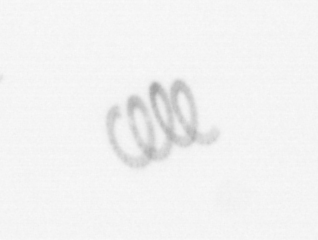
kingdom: Chromista
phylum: Ochrophyta
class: Bacillariophyceae
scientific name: Bacillariophyceae
